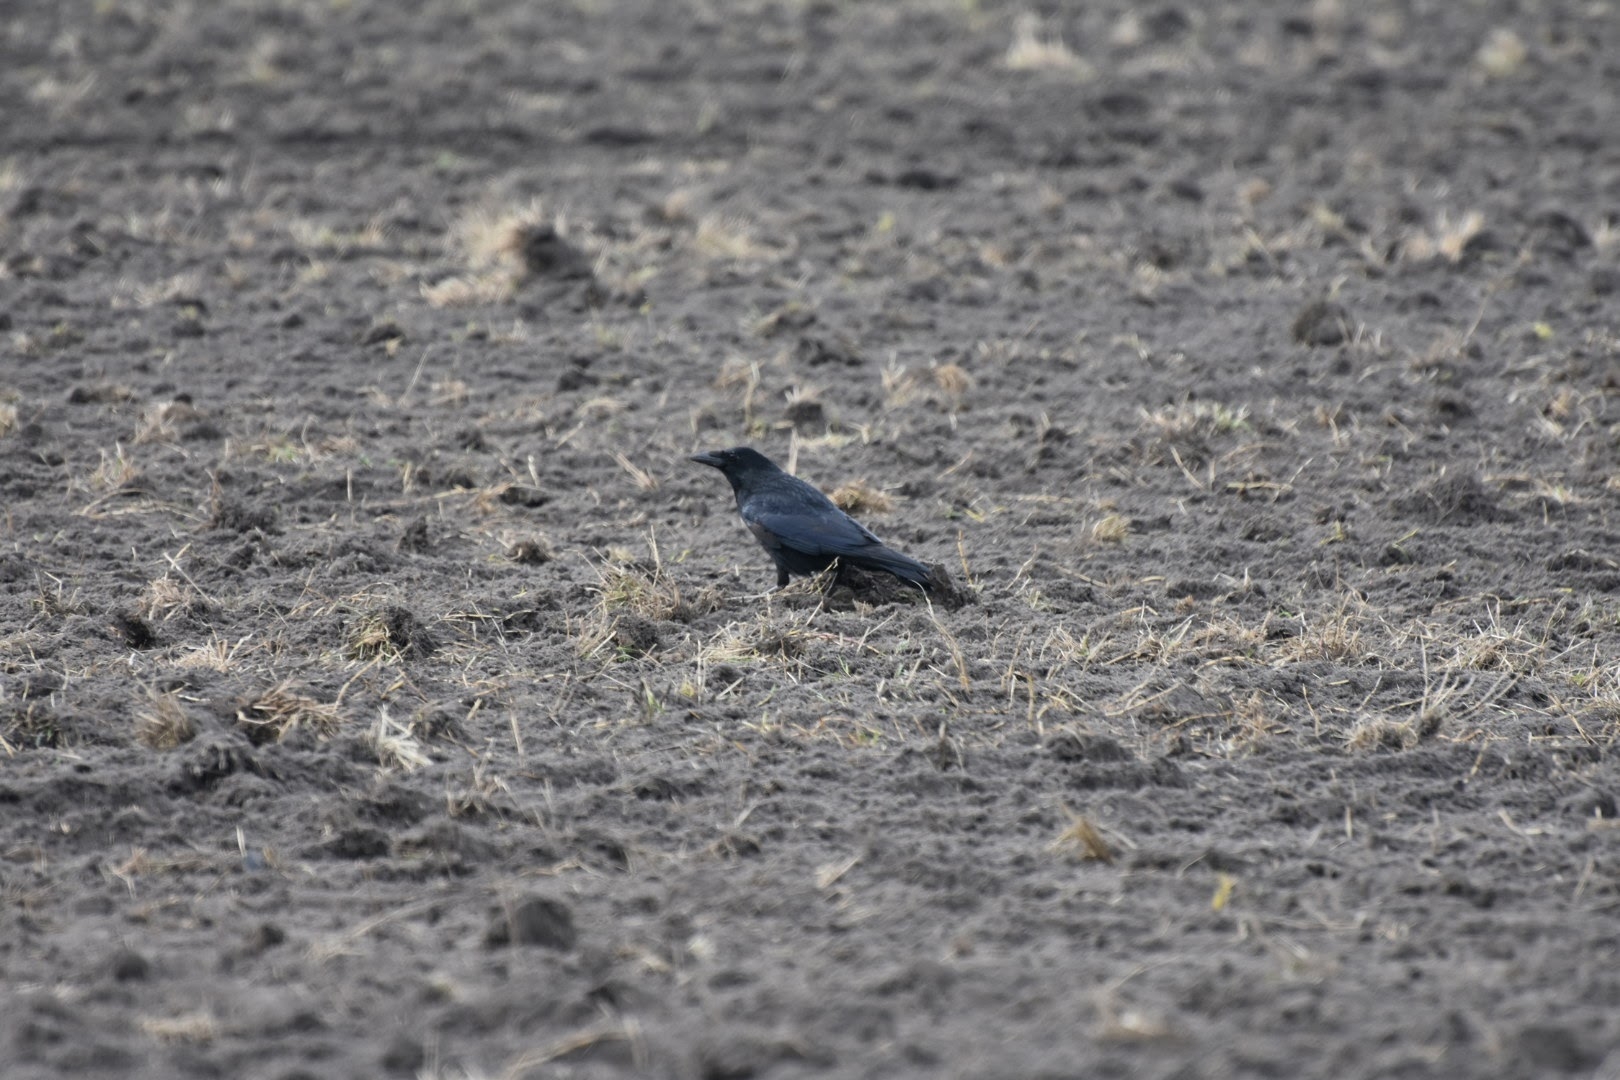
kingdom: Animalia
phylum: Chordata
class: Aves
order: Passeriformes
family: Corvidae
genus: Corvus
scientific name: Corvus corone
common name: Sortkrage
